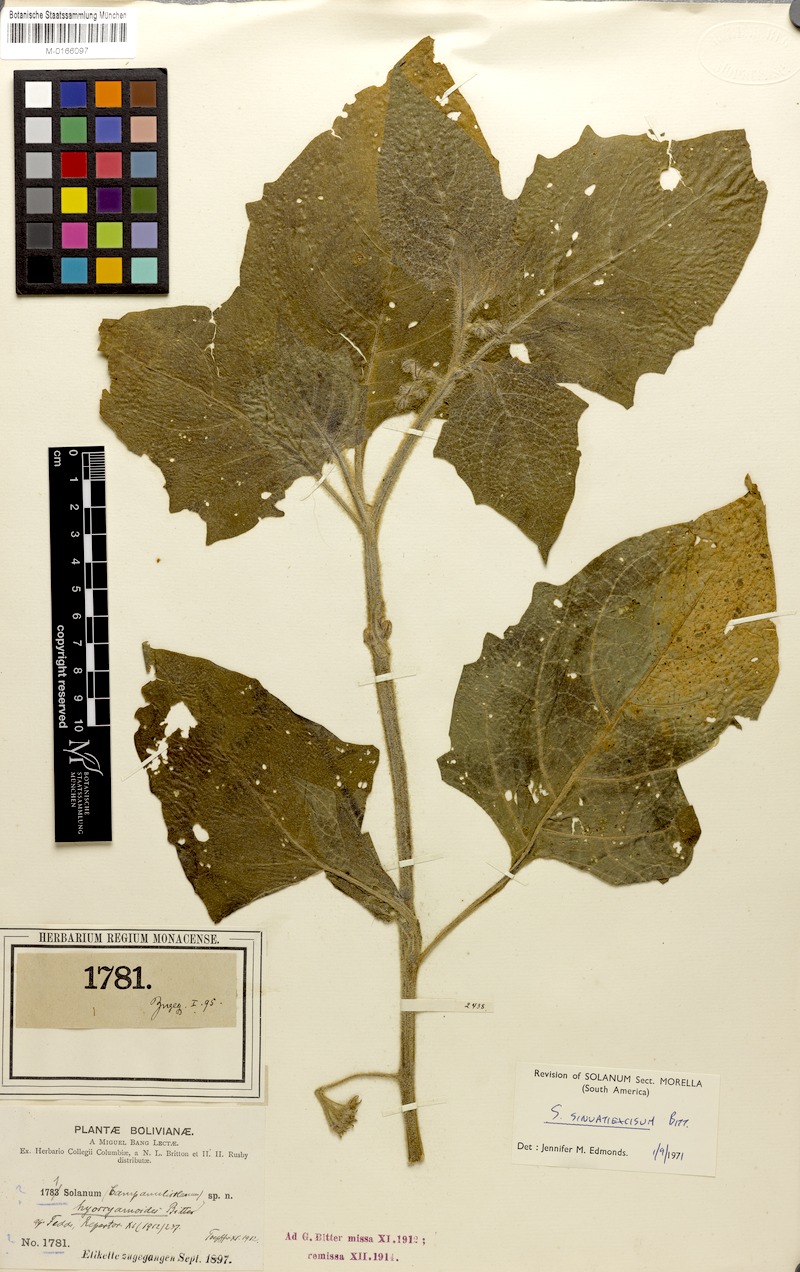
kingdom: Plantae
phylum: Tracheophyta
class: Magnoliopsida
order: Solanales
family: Solanaceae
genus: Solanum
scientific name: Solanum sinuatiexcisum
